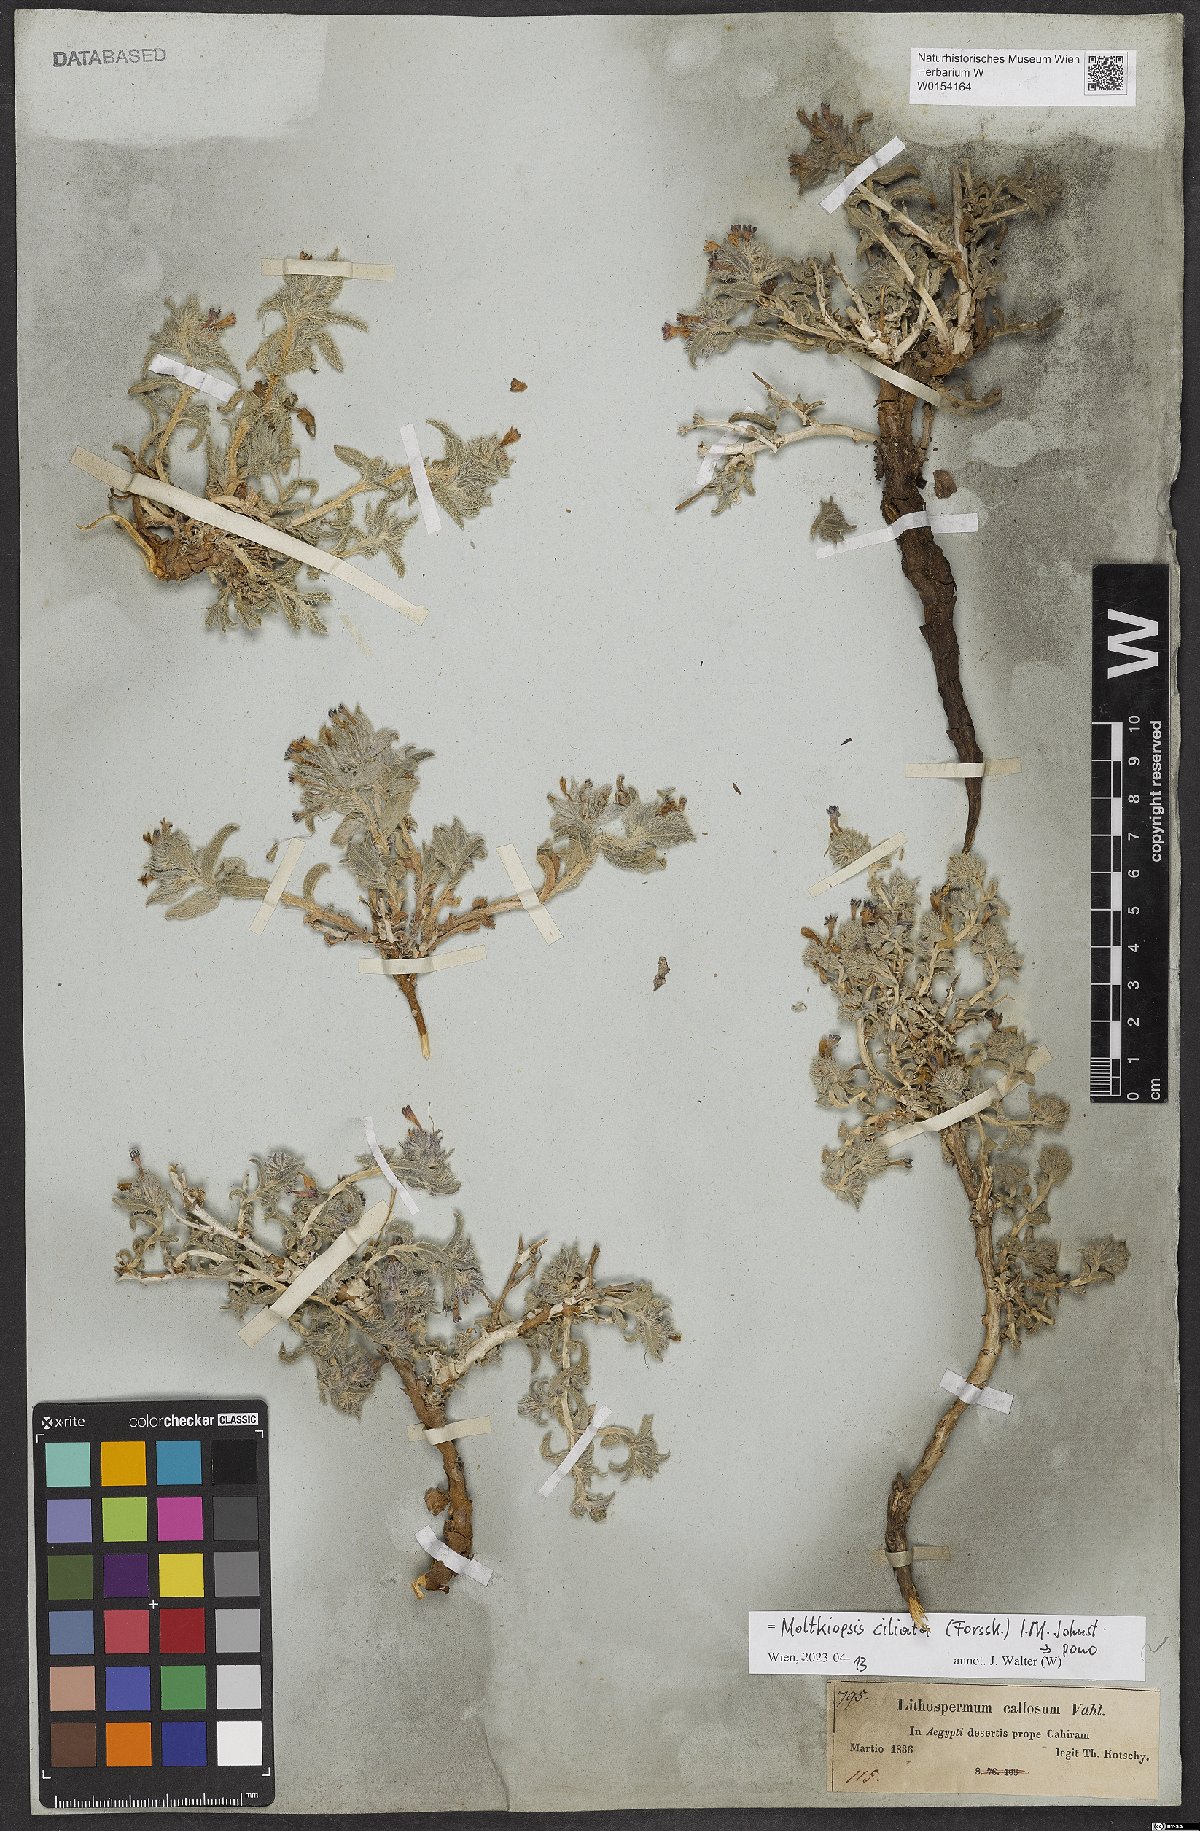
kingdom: Plantae
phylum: Tracheophyta
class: Magnoliopsida
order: Boraginales
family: Boraginaceae
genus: Moltkiopsis
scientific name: Moltkiopsis ciliata
